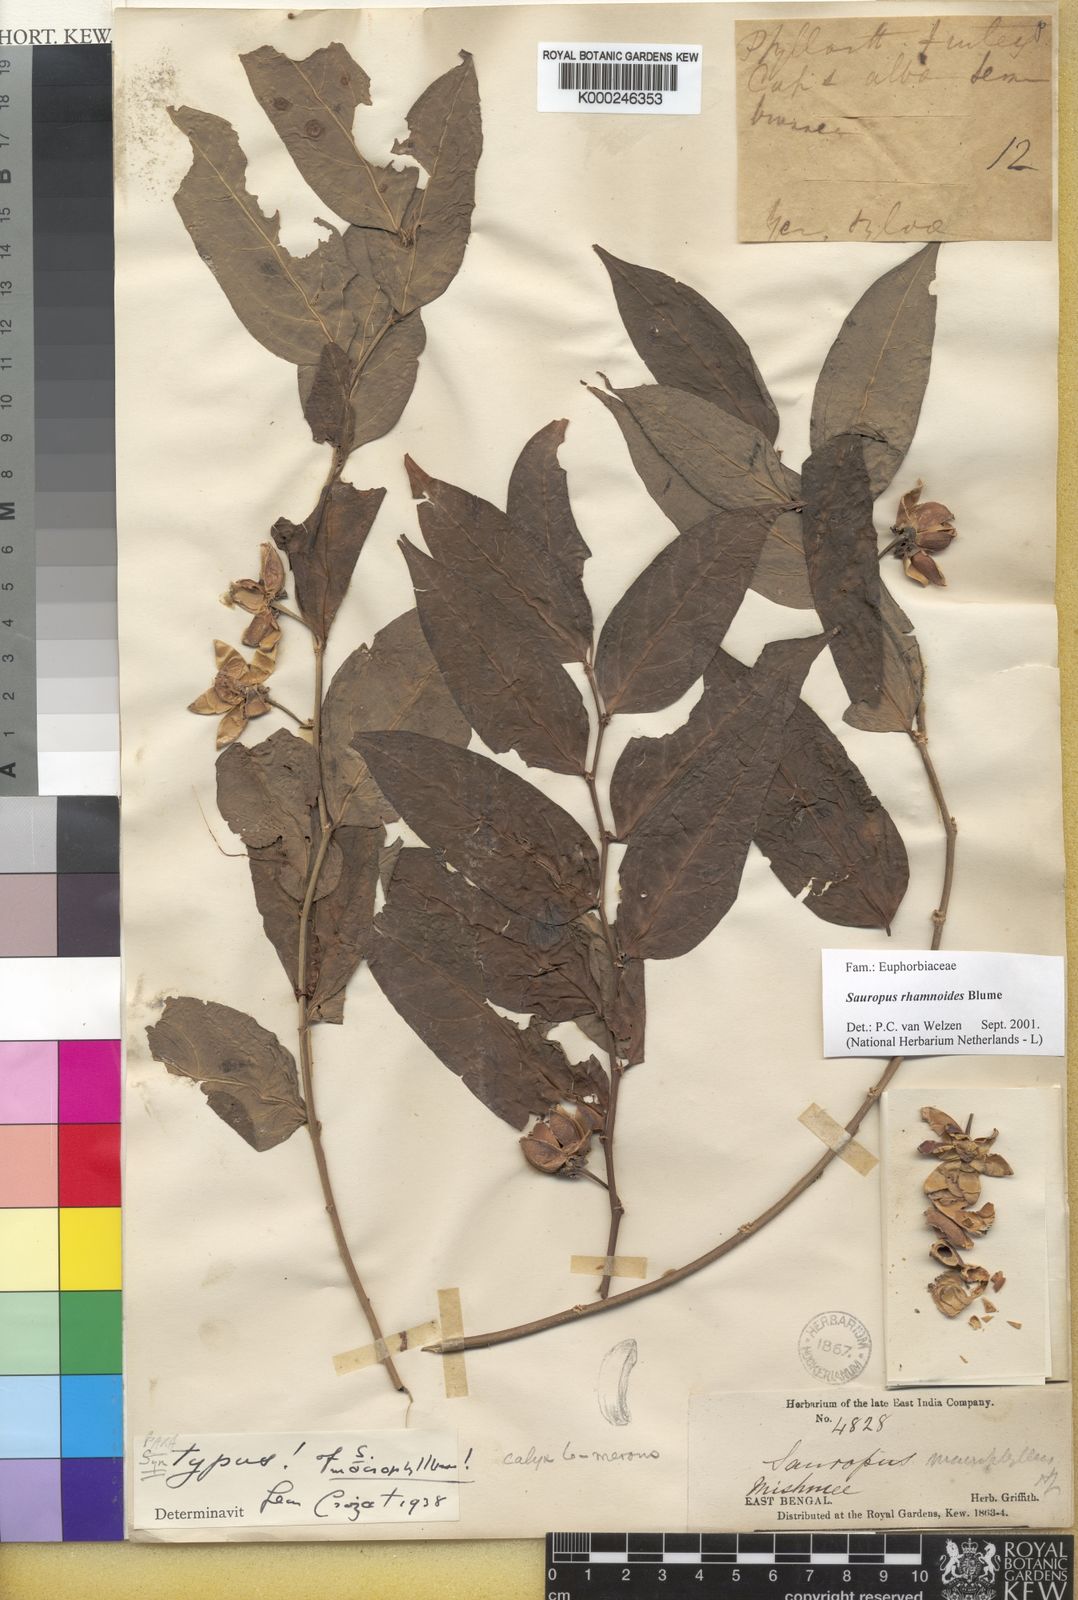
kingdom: Plantae
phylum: Tracheophyta
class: Magnoliopsida
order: Malpighiales
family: Phyllanthaceae
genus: Breynia
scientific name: Breynia lanceolata
